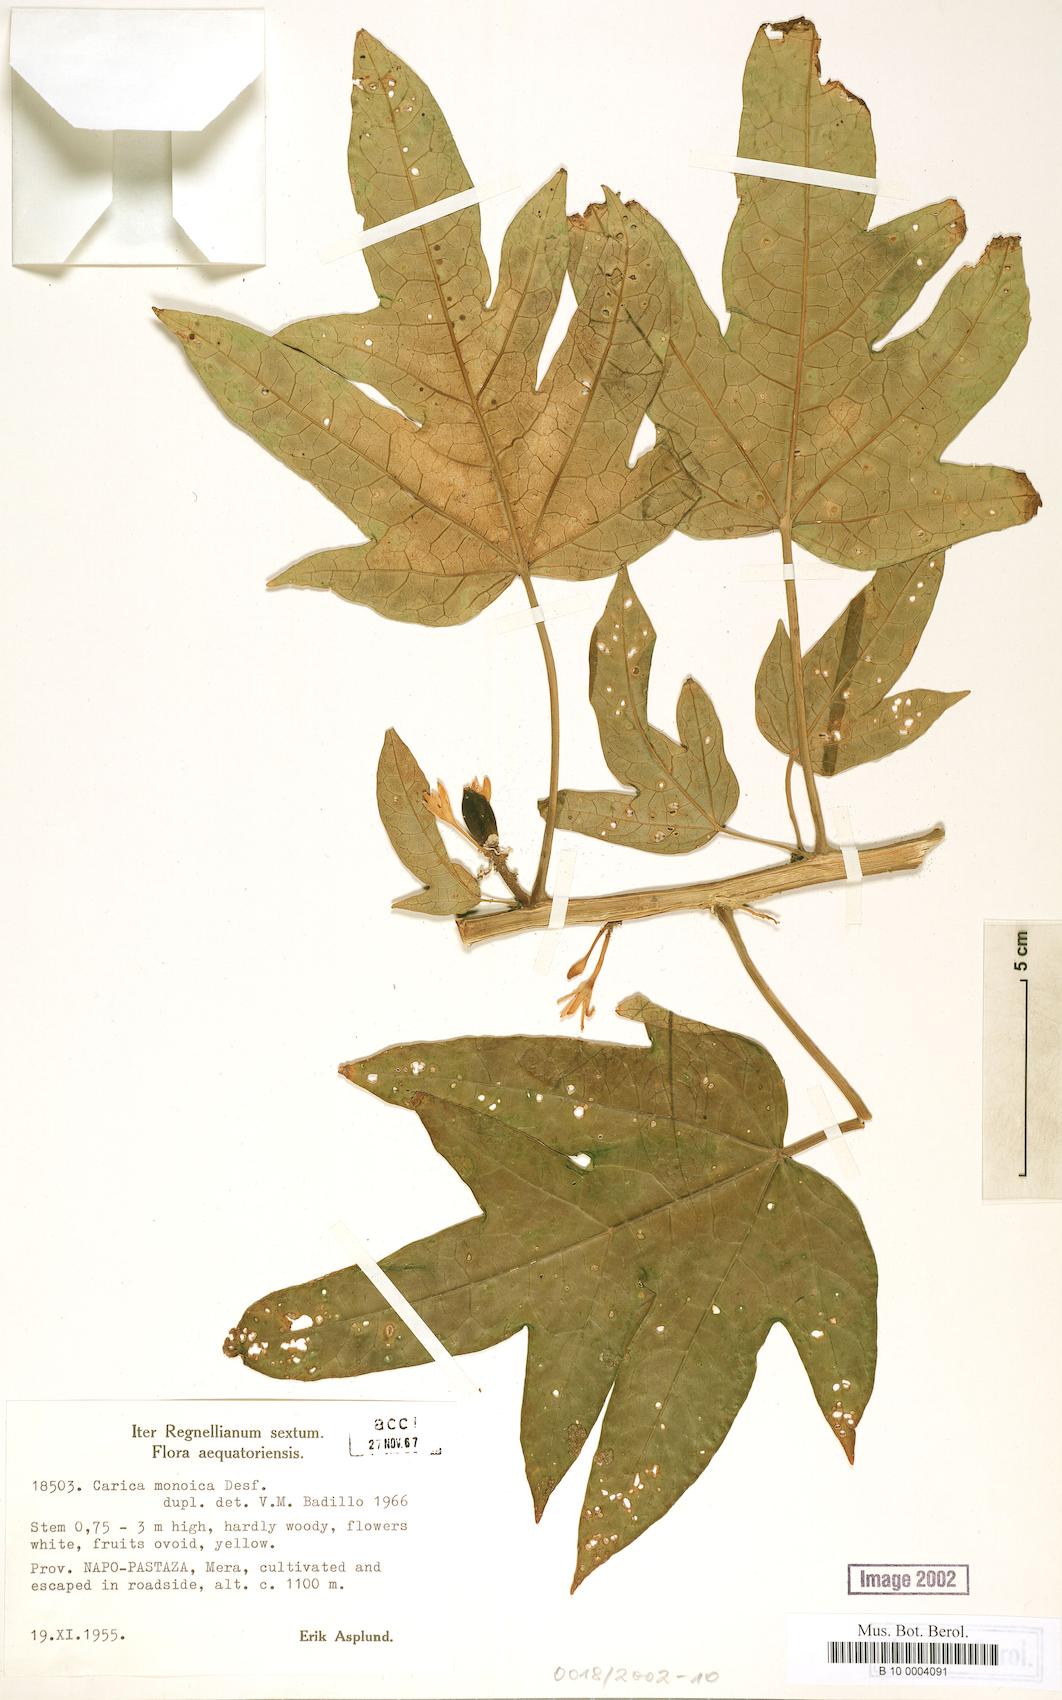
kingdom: Plantae
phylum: Tracheophyta
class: Magnoliopsida
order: Brassicales
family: Caricaceae
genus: Vasconcellea
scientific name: Vasconcellea monoica
